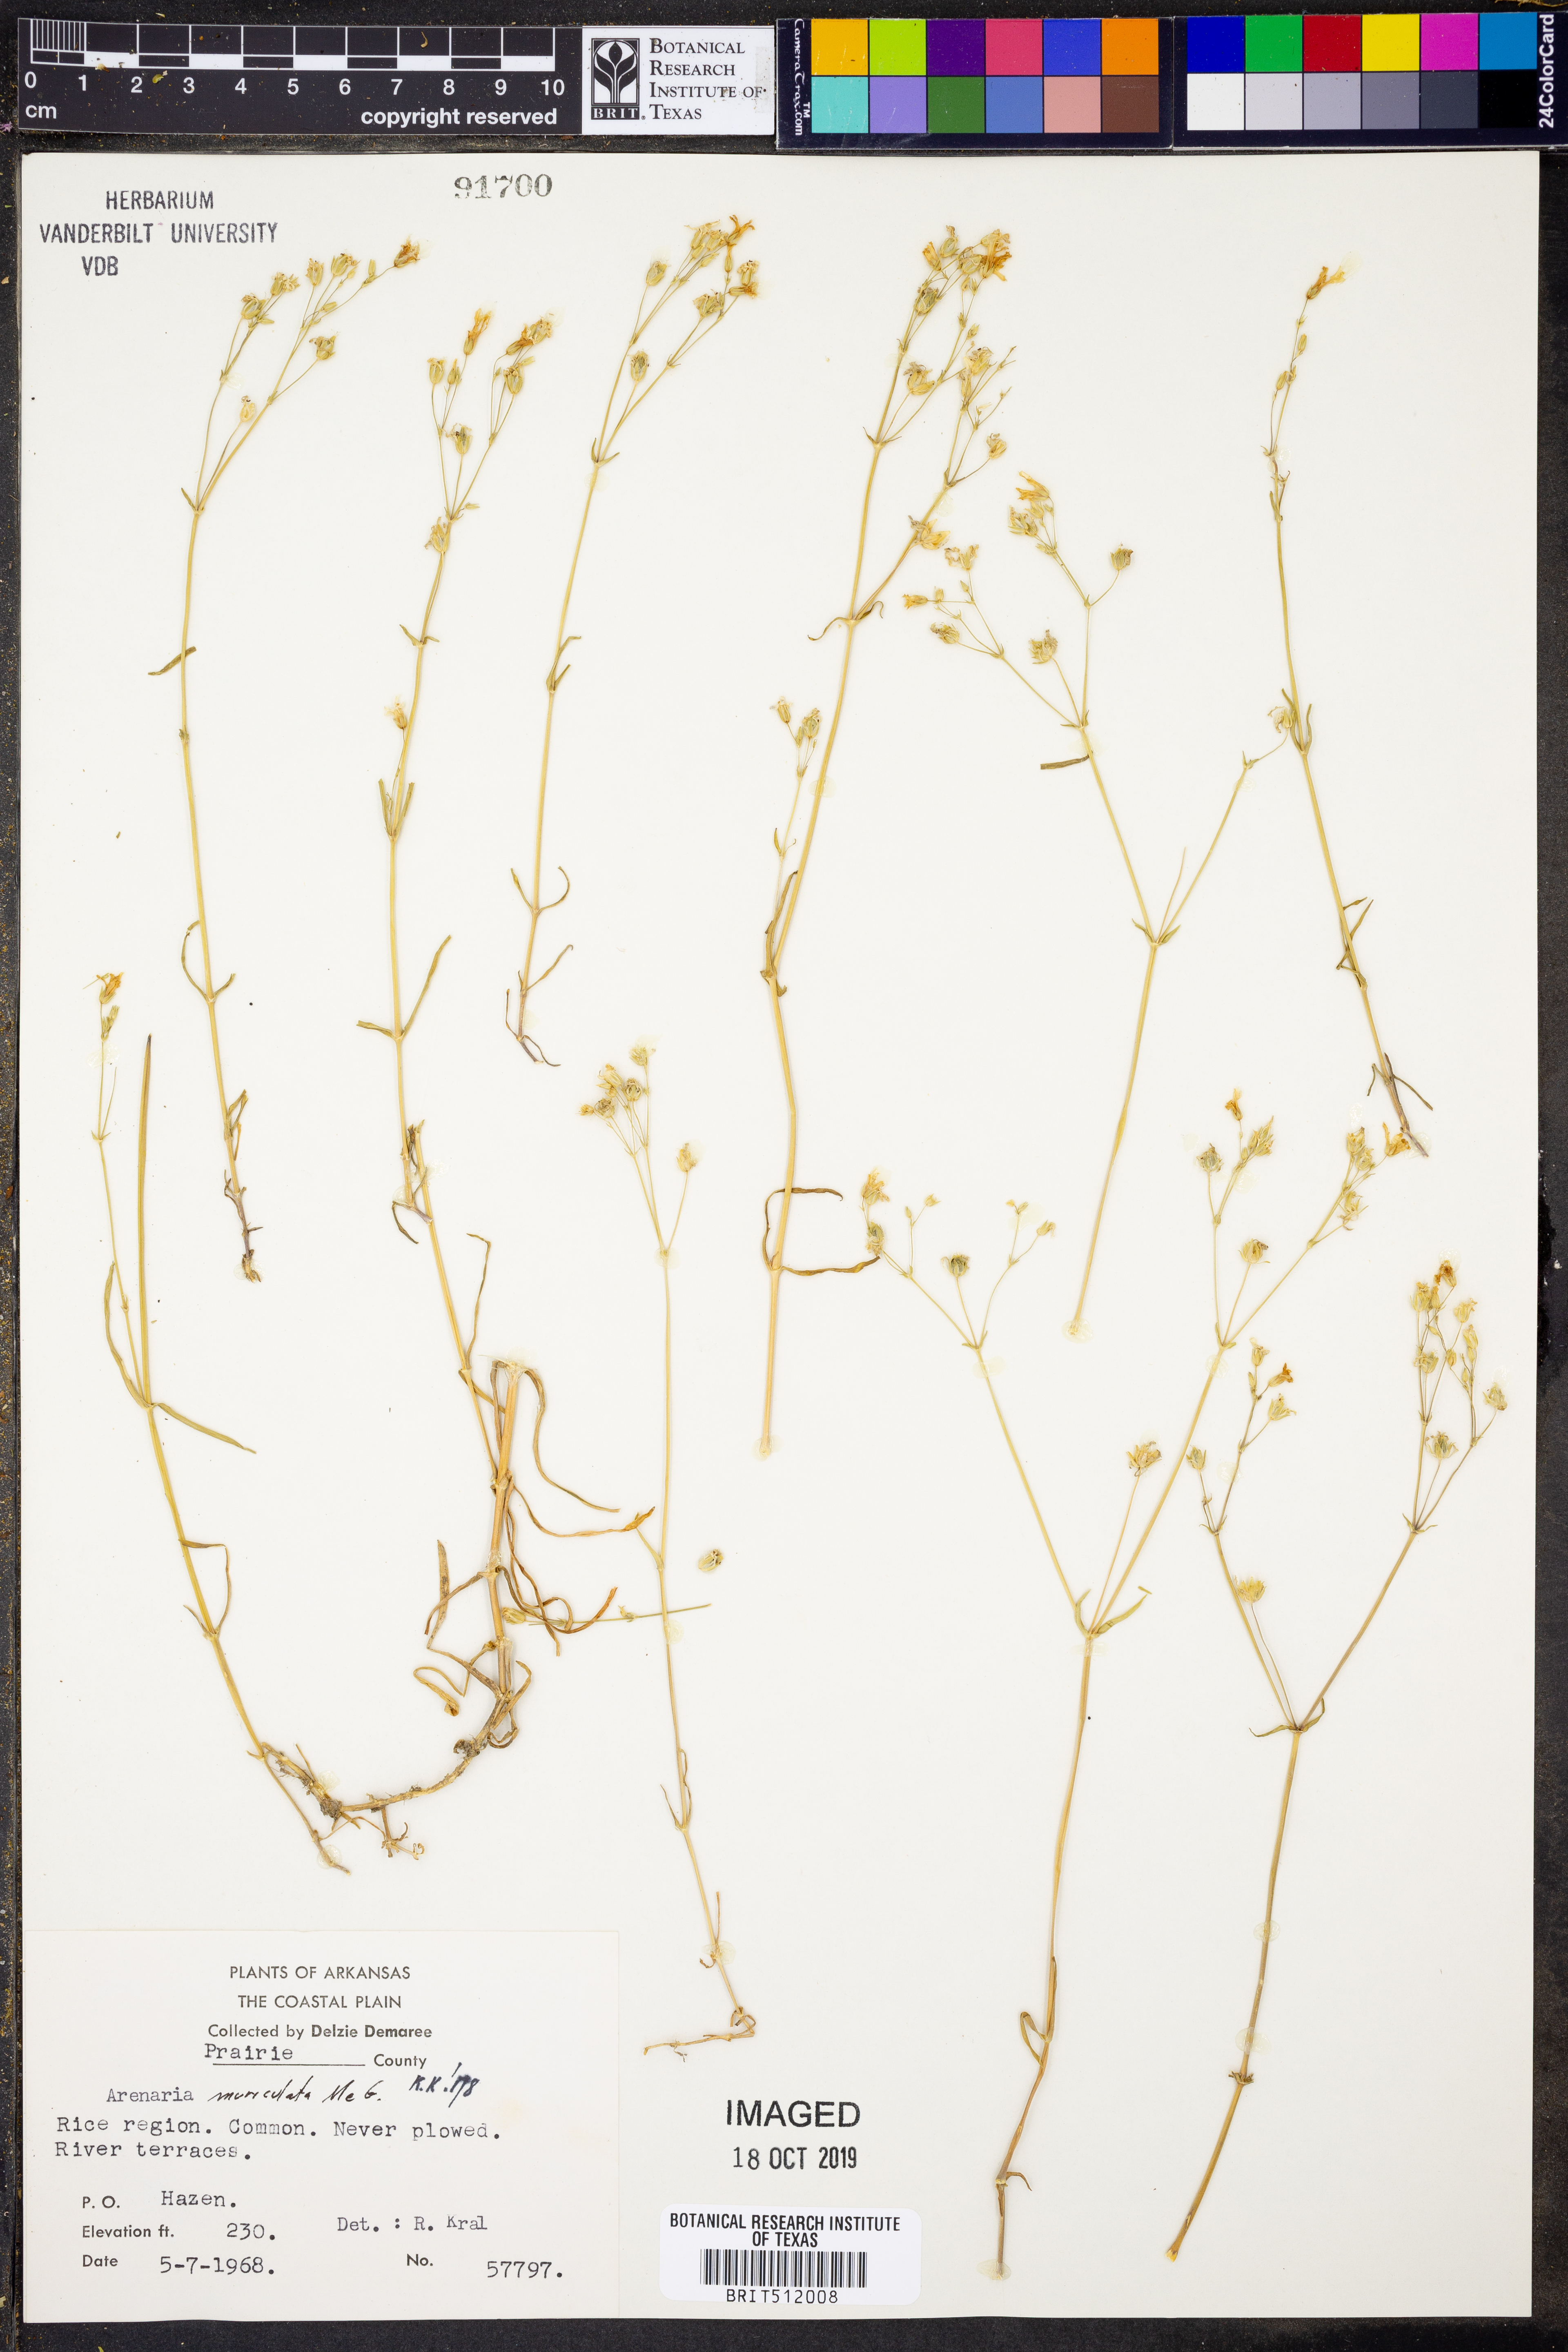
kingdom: Plantae
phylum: Tracheophyta
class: Magnoliopsida
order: Caryophyllales
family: Caryophyllaceae
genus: Mononeuria
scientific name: Mononeuria muscorum
